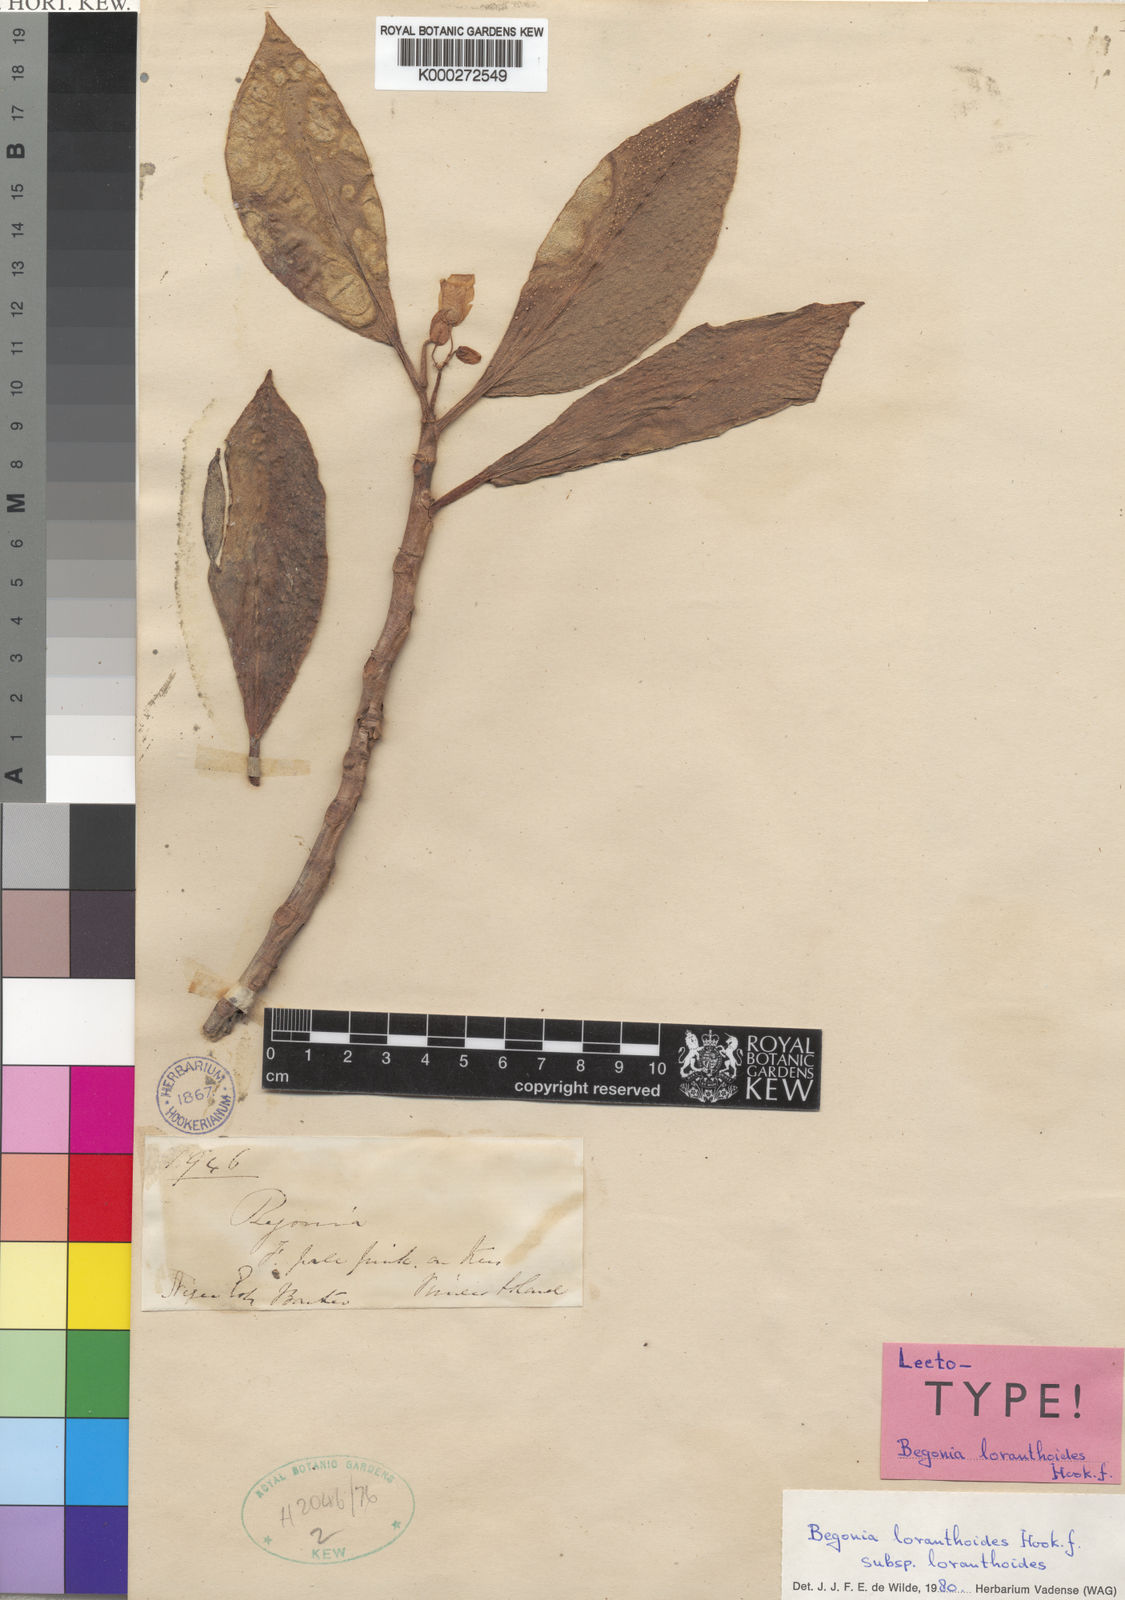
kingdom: Plantae
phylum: Tracheophyta
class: Magnoliopsida
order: Cucurbitales
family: Begoniaceae
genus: Begonia
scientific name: Begonia loranthoides
